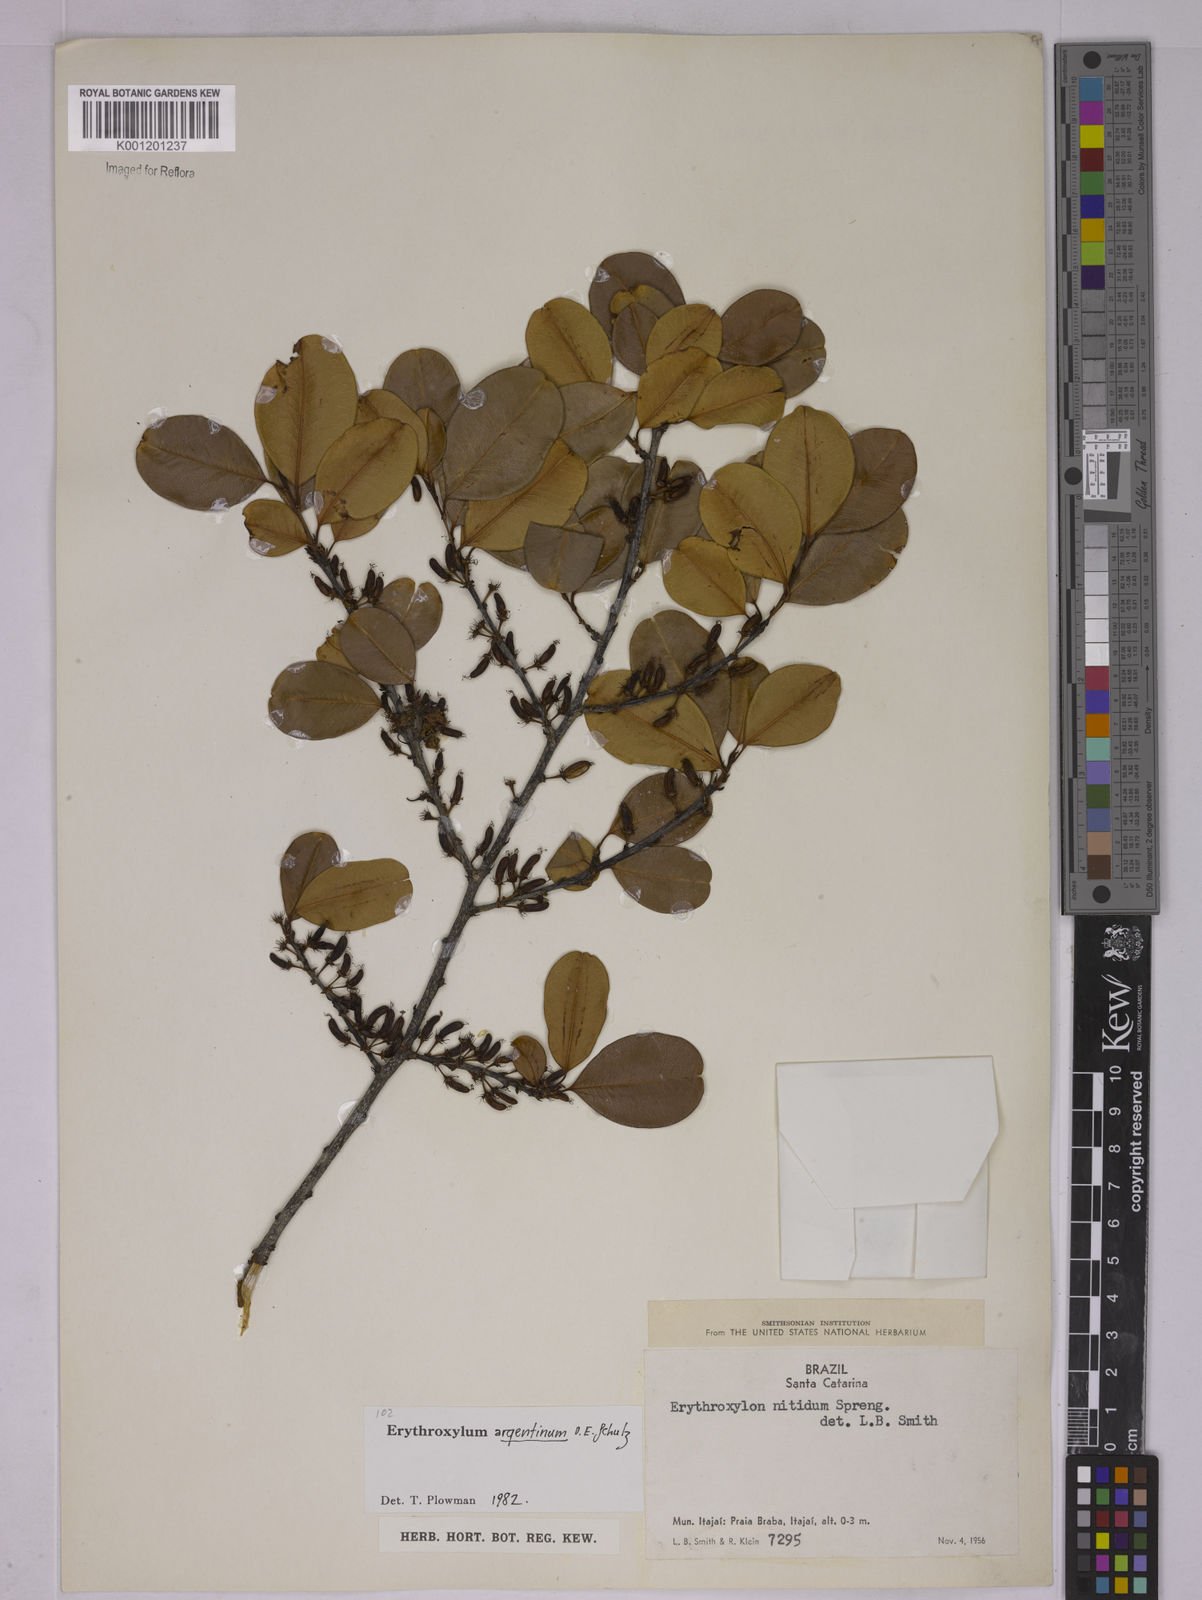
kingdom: Plantae
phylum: Tracheophyta
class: Magnoliopsida
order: Malpighiales
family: Erythroxylaceae
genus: Erythroxylum
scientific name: Erythroxylum argentinum
